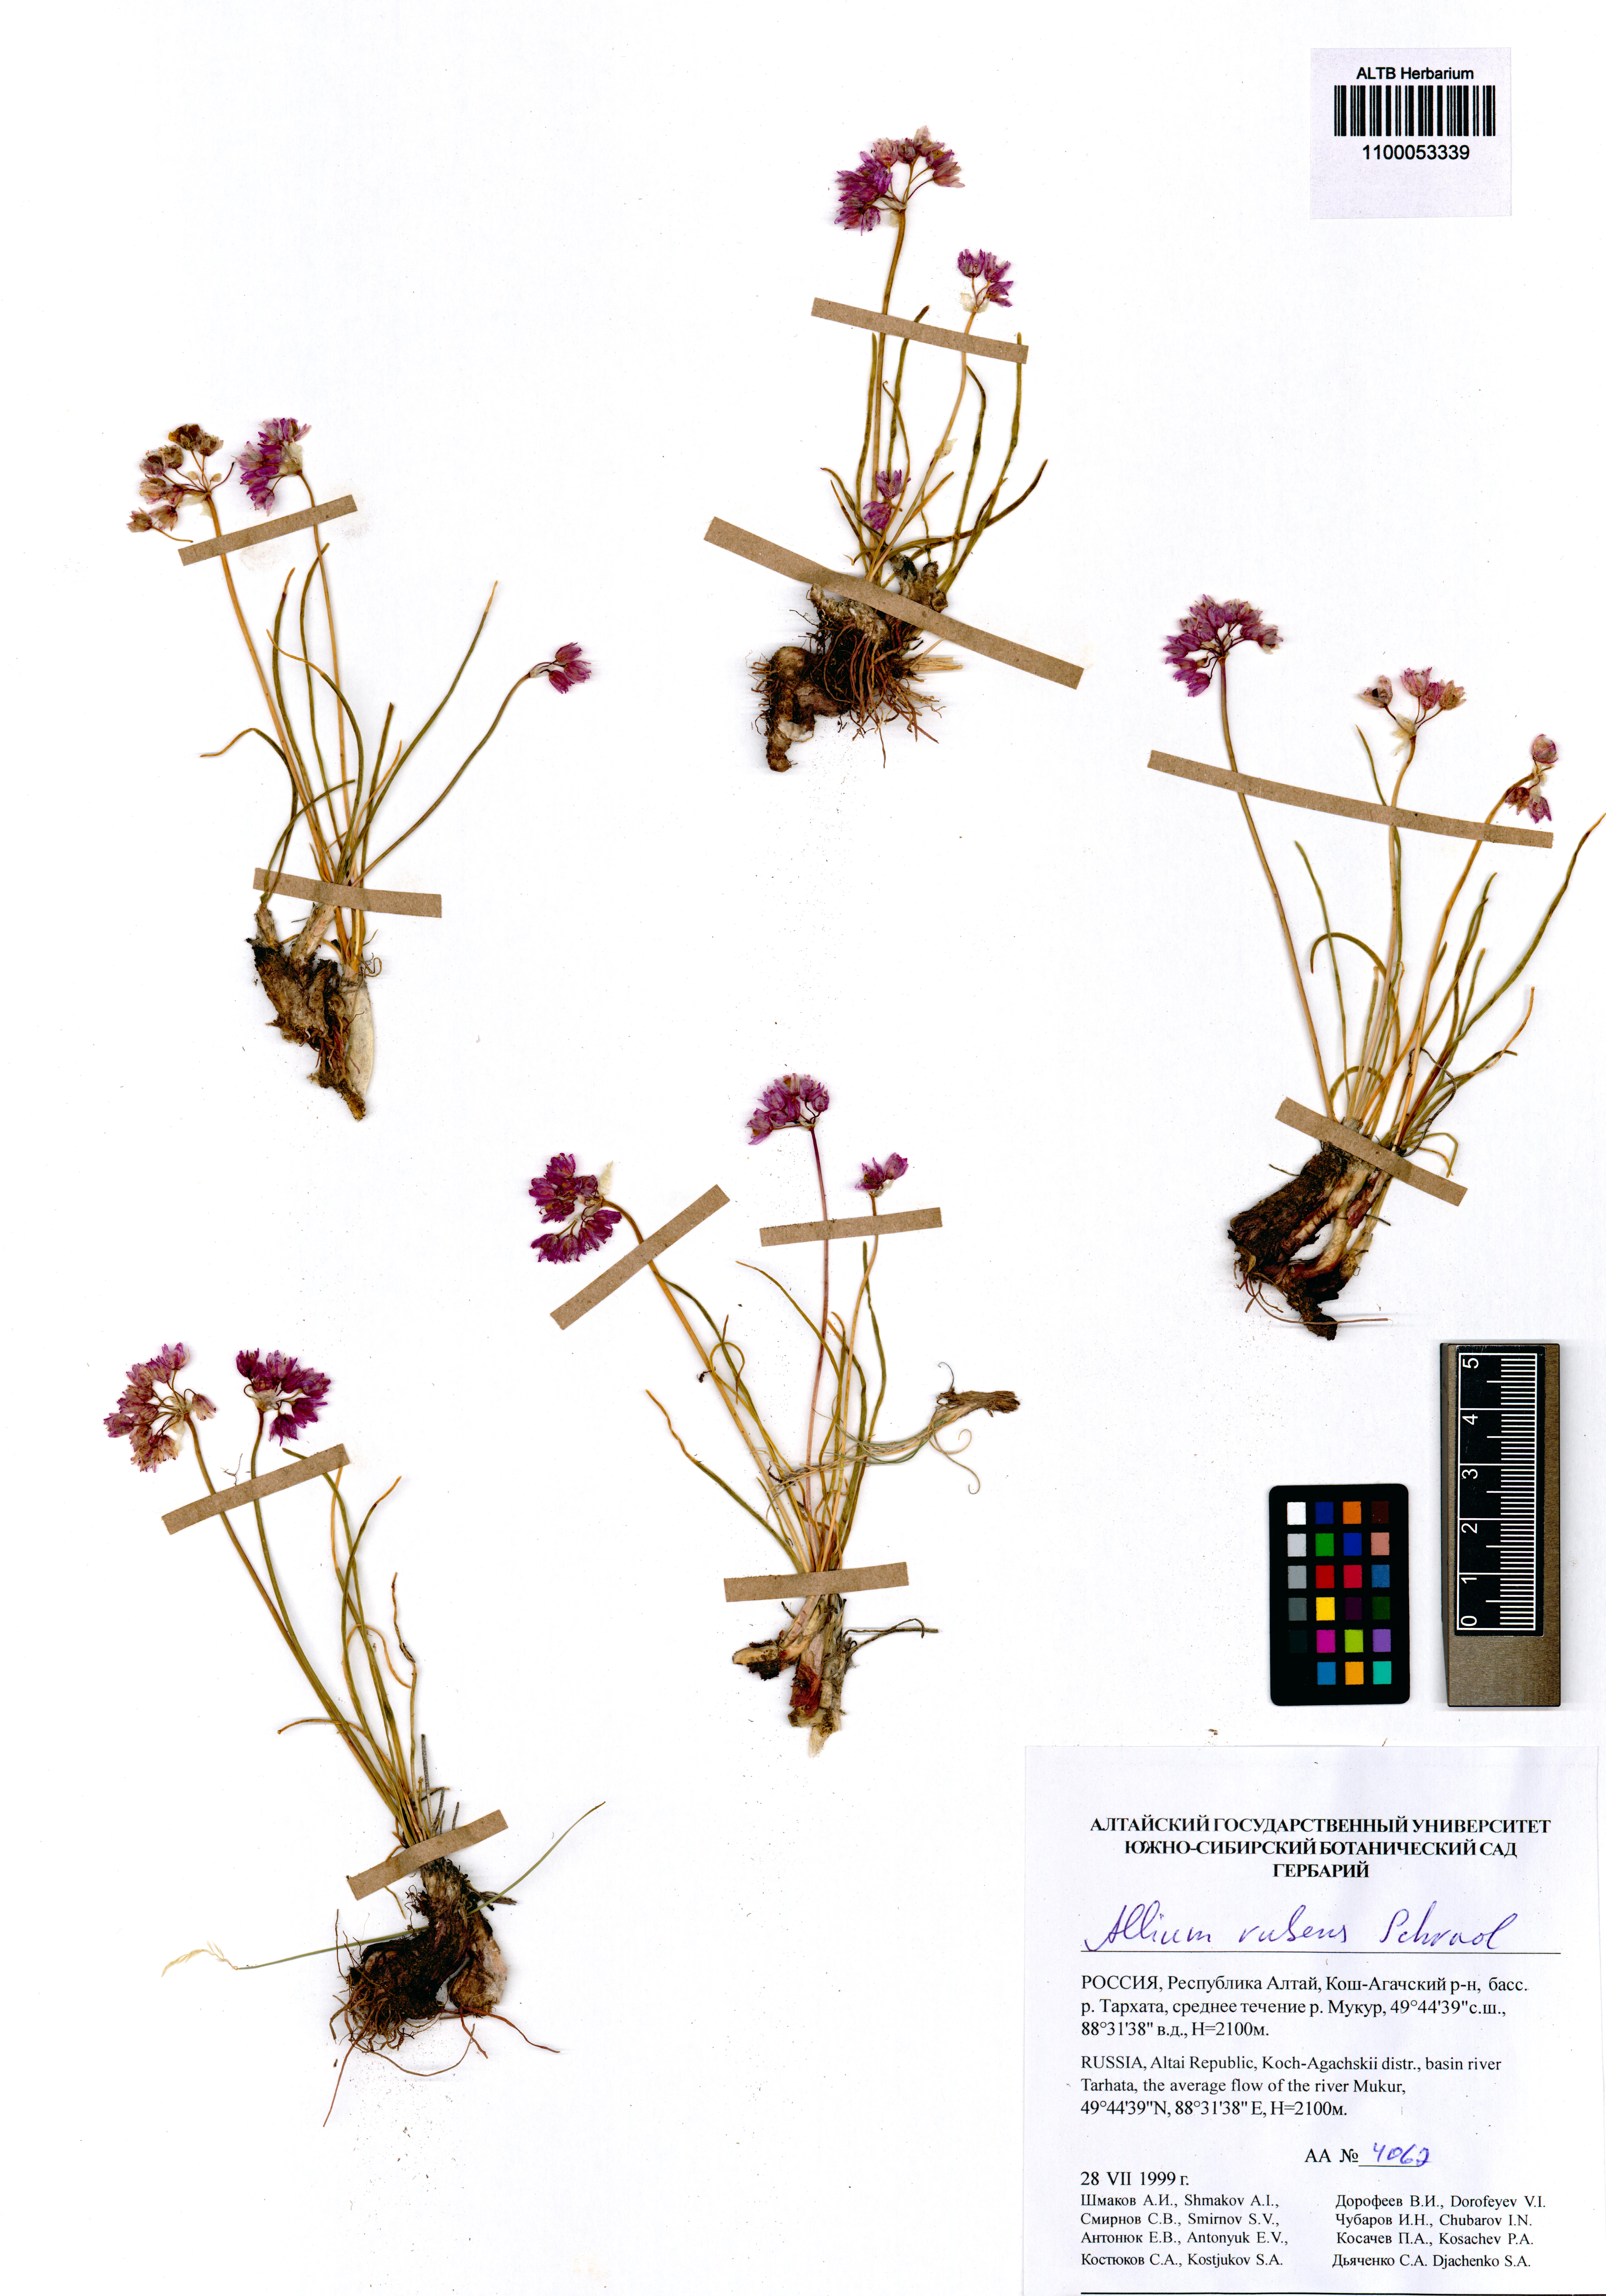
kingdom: Plantae
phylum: Tracheophyta
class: Liliopsida
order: Asparagales
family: Amaryllidaceae
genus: Allium
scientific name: Allium rubens
